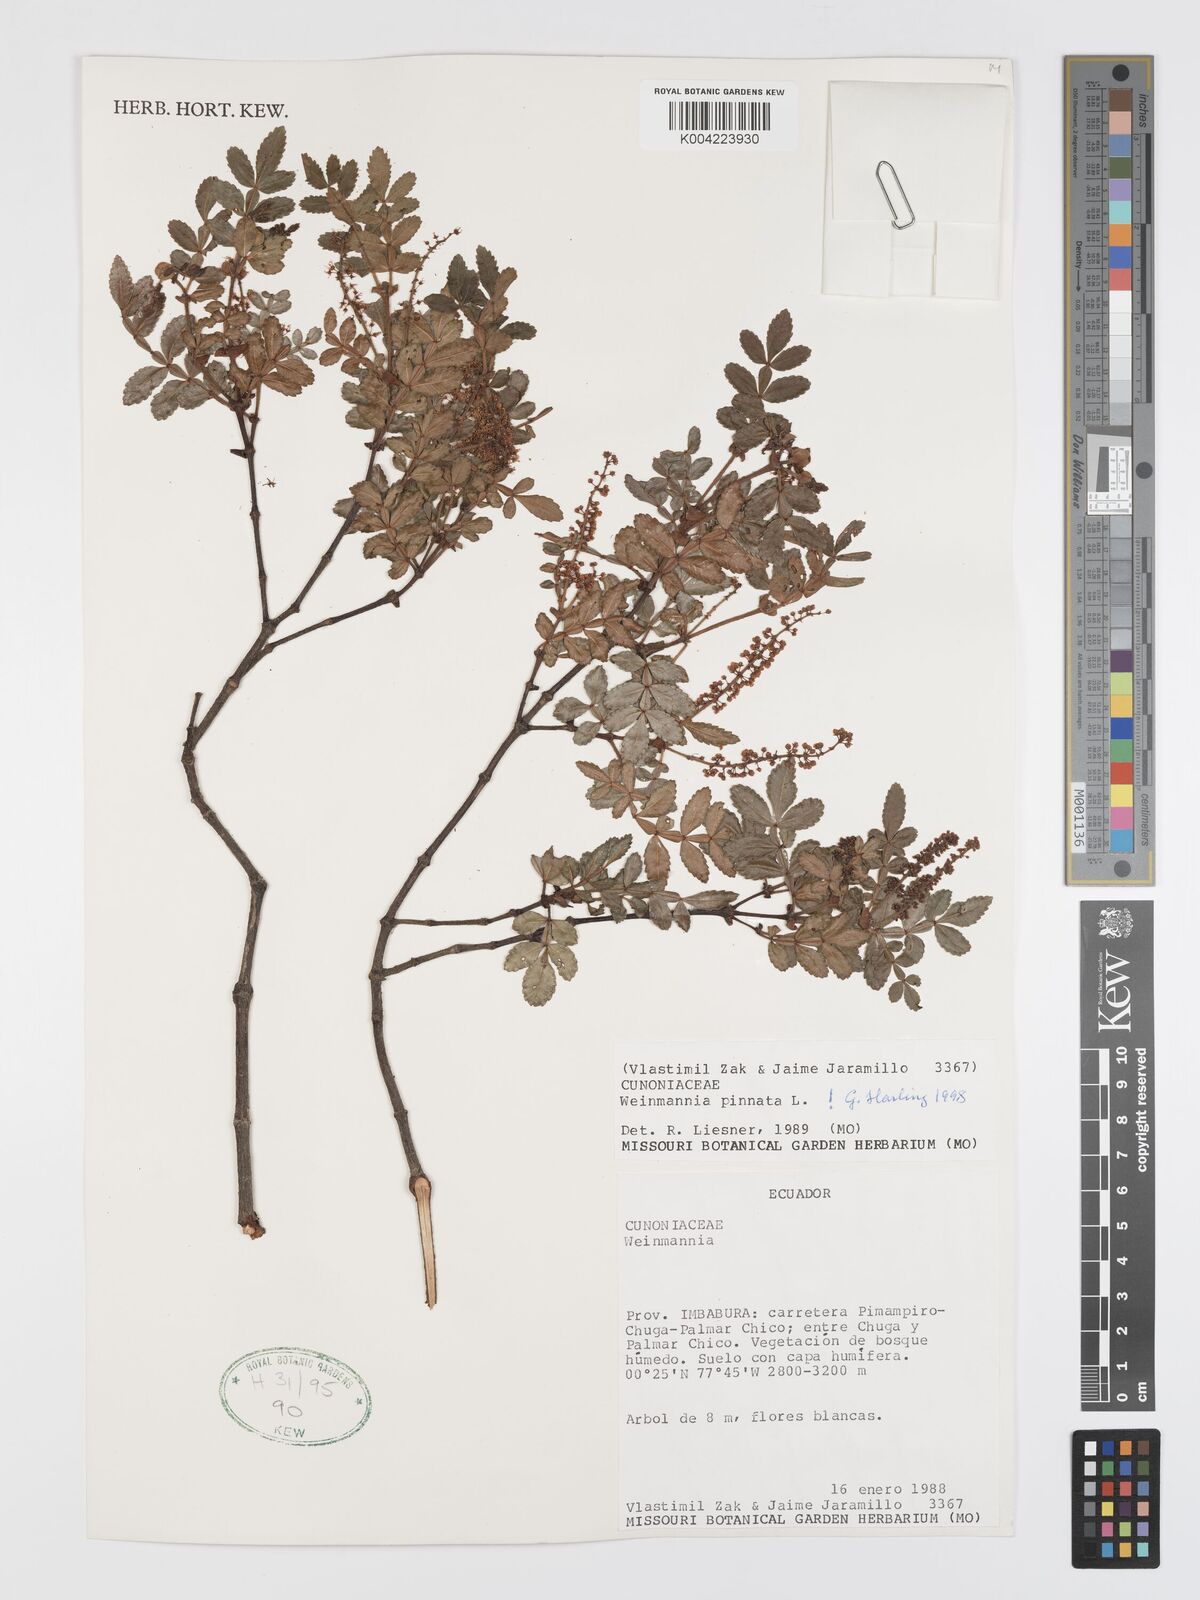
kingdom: Plantae
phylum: Tracheophyta
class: Magnoliopsida
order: Oxalidales
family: Cunoniaceae
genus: Weinmannia
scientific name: Weinmannia pinnata
